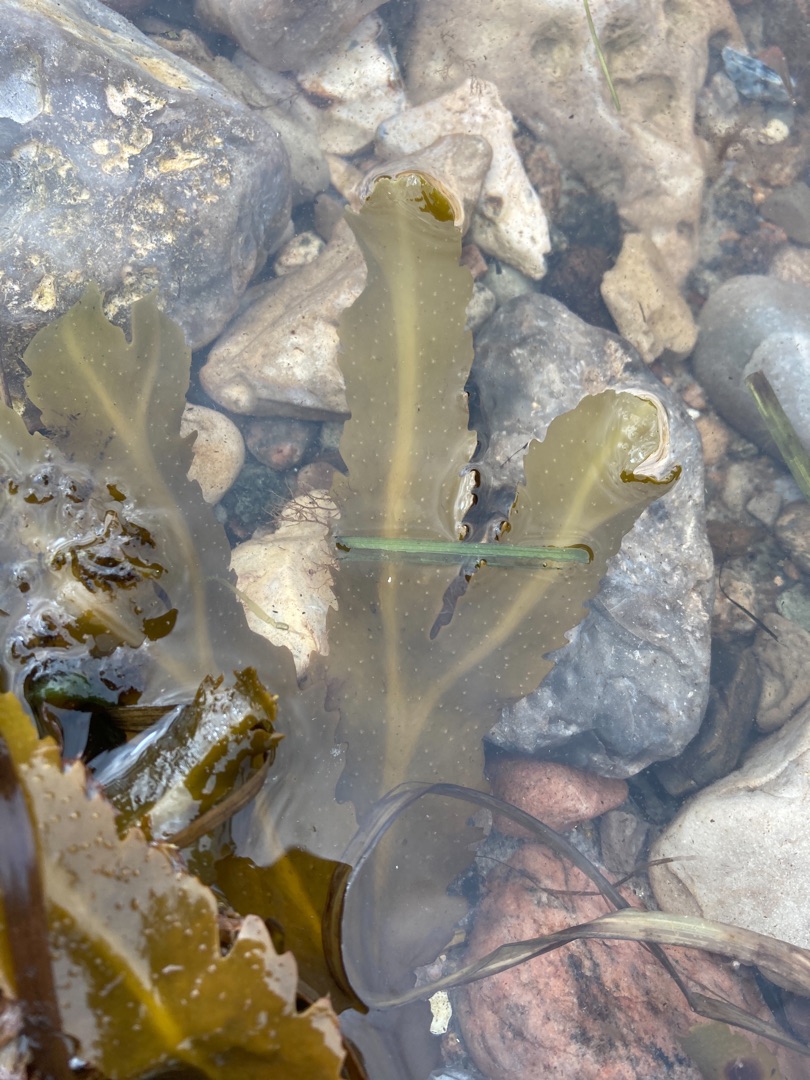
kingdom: Chromista
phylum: Ochrophyta
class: Phaeophyceae
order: Fucales
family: Fucaceae
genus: Fucus
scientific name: Fucus serratus
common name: Savtang
